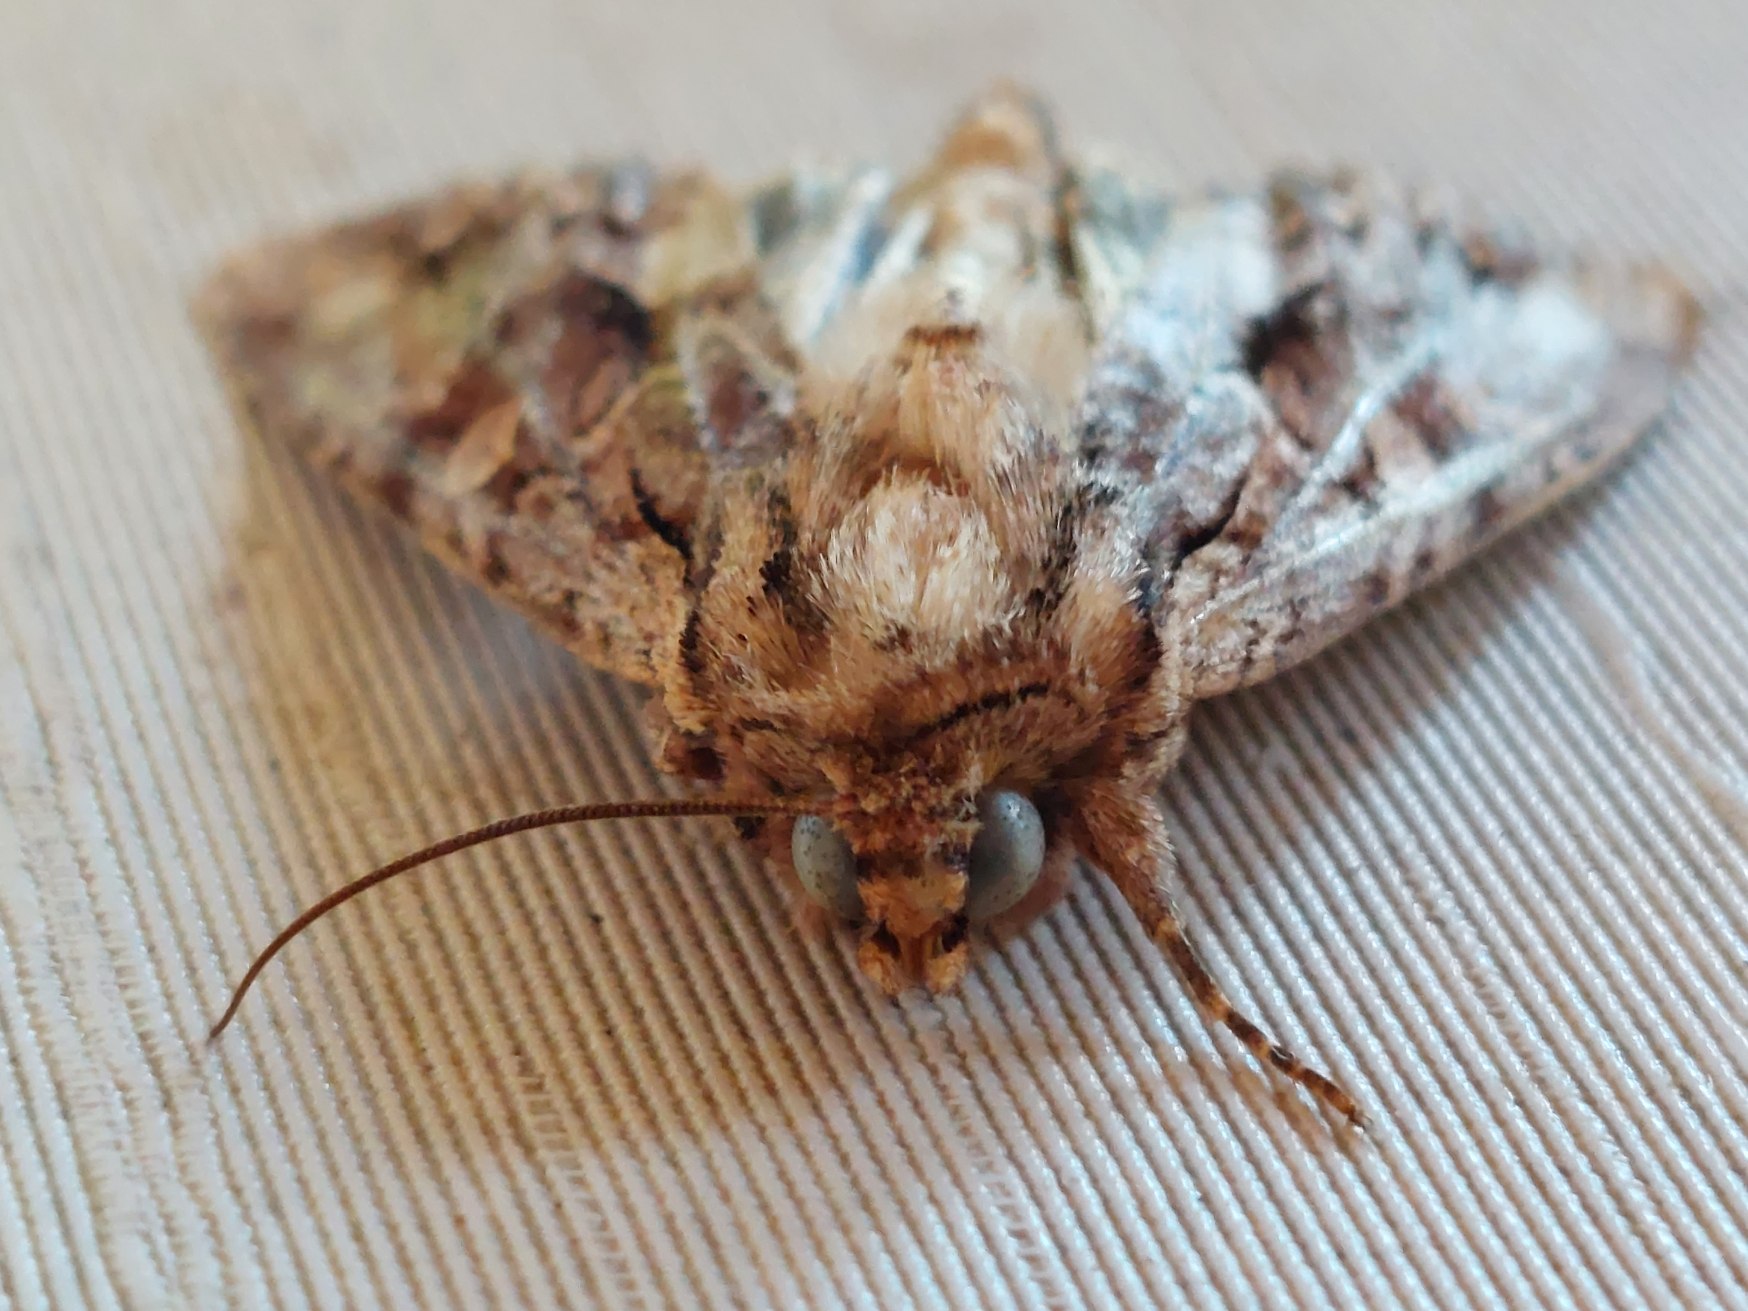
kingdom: Animalia
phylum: Arthropoda
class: Insecta
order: Lepidoptera
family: Noctuidae
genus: Apamea
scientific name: Apamea monoglypha
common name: Jordugle
